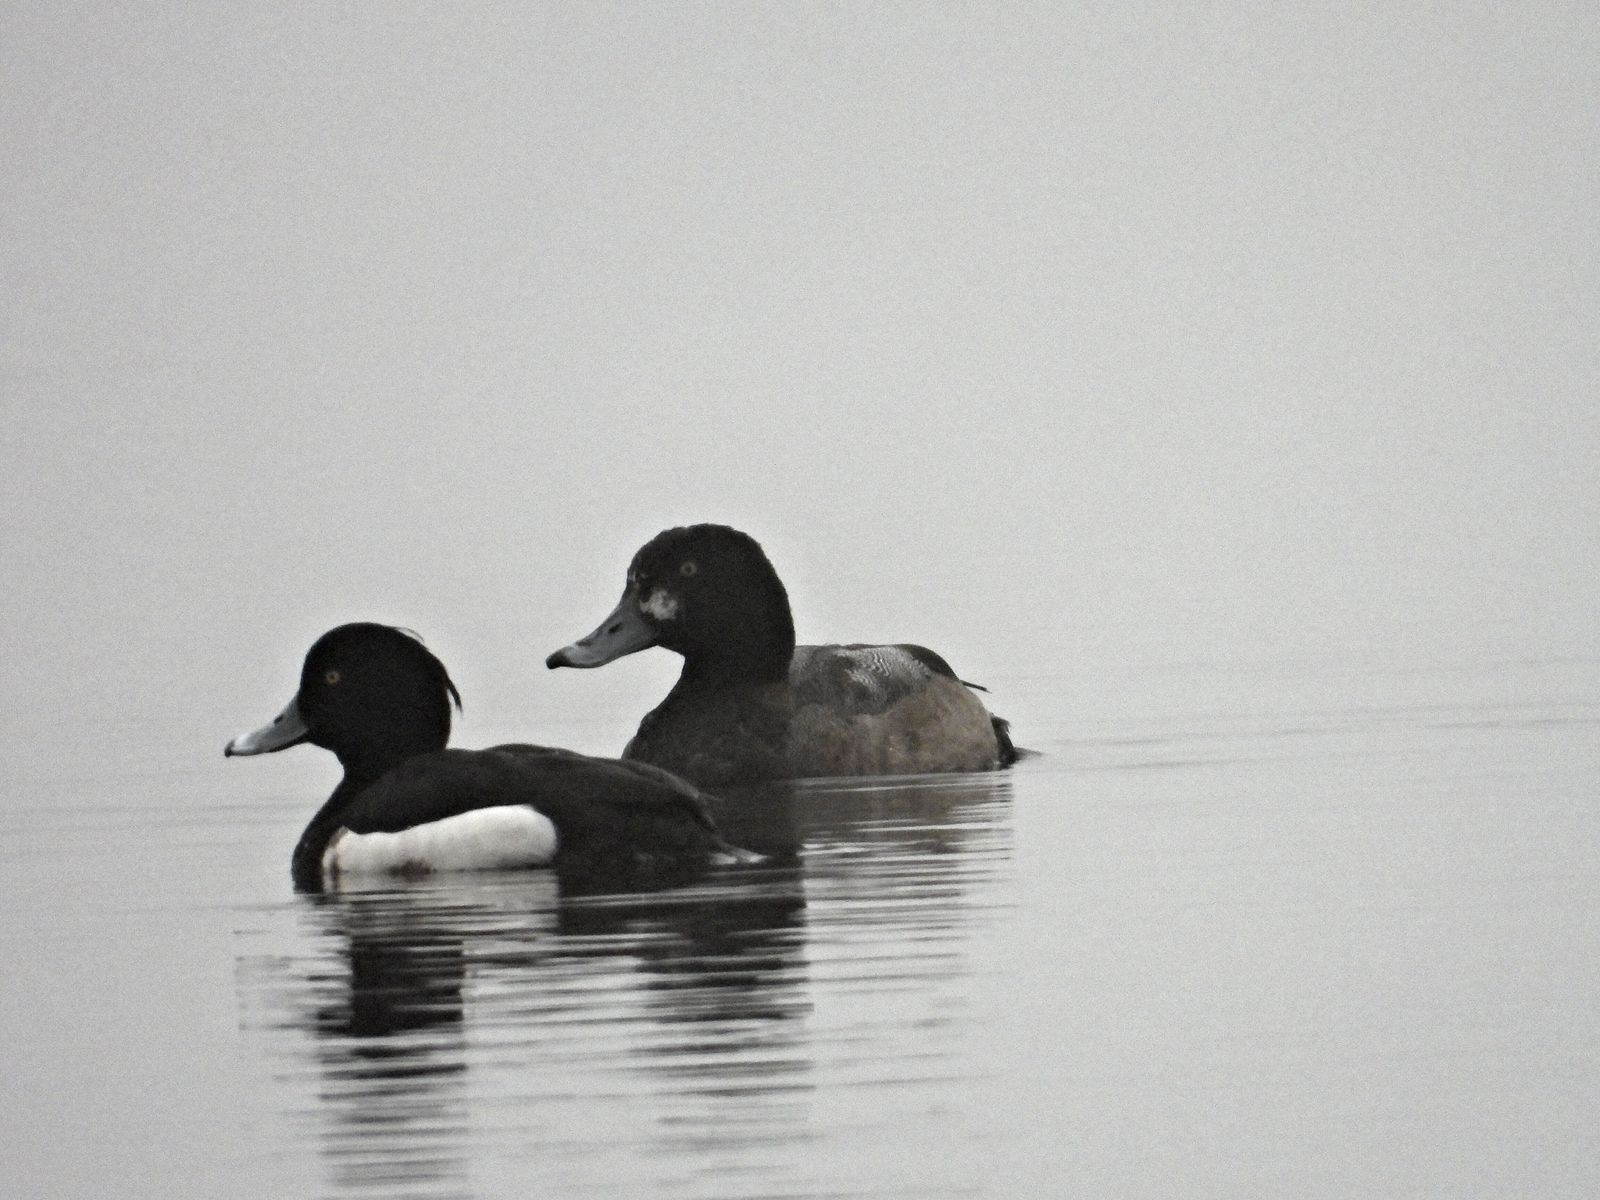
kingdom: Animalia
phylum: Chordata
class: Aves
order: Anseriformes
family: Anatidae
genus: Aythya
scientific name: Aythya marila
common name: Greater scaup
